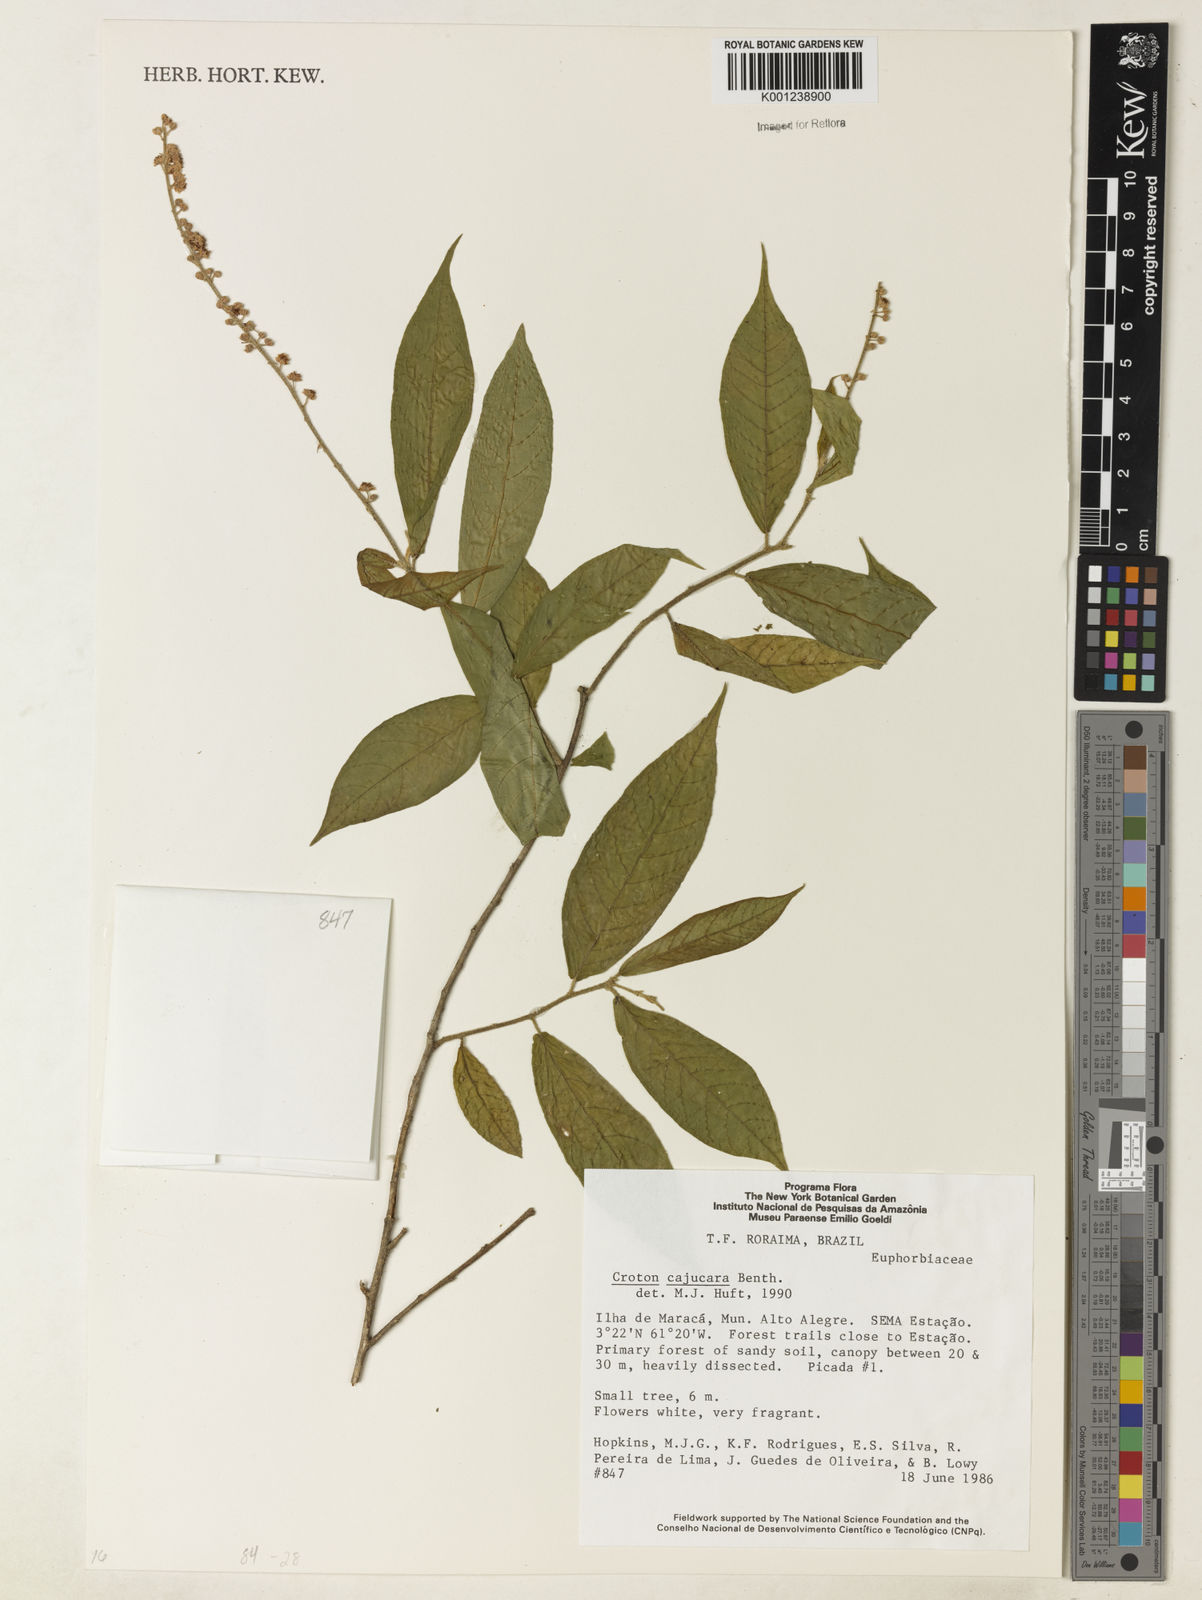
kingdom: Plantae
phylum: Tracheophyta
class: Magnoliopsida
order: Malpighiales
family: Euphorbiaceae
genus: Croton
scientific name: Croton cajucara
